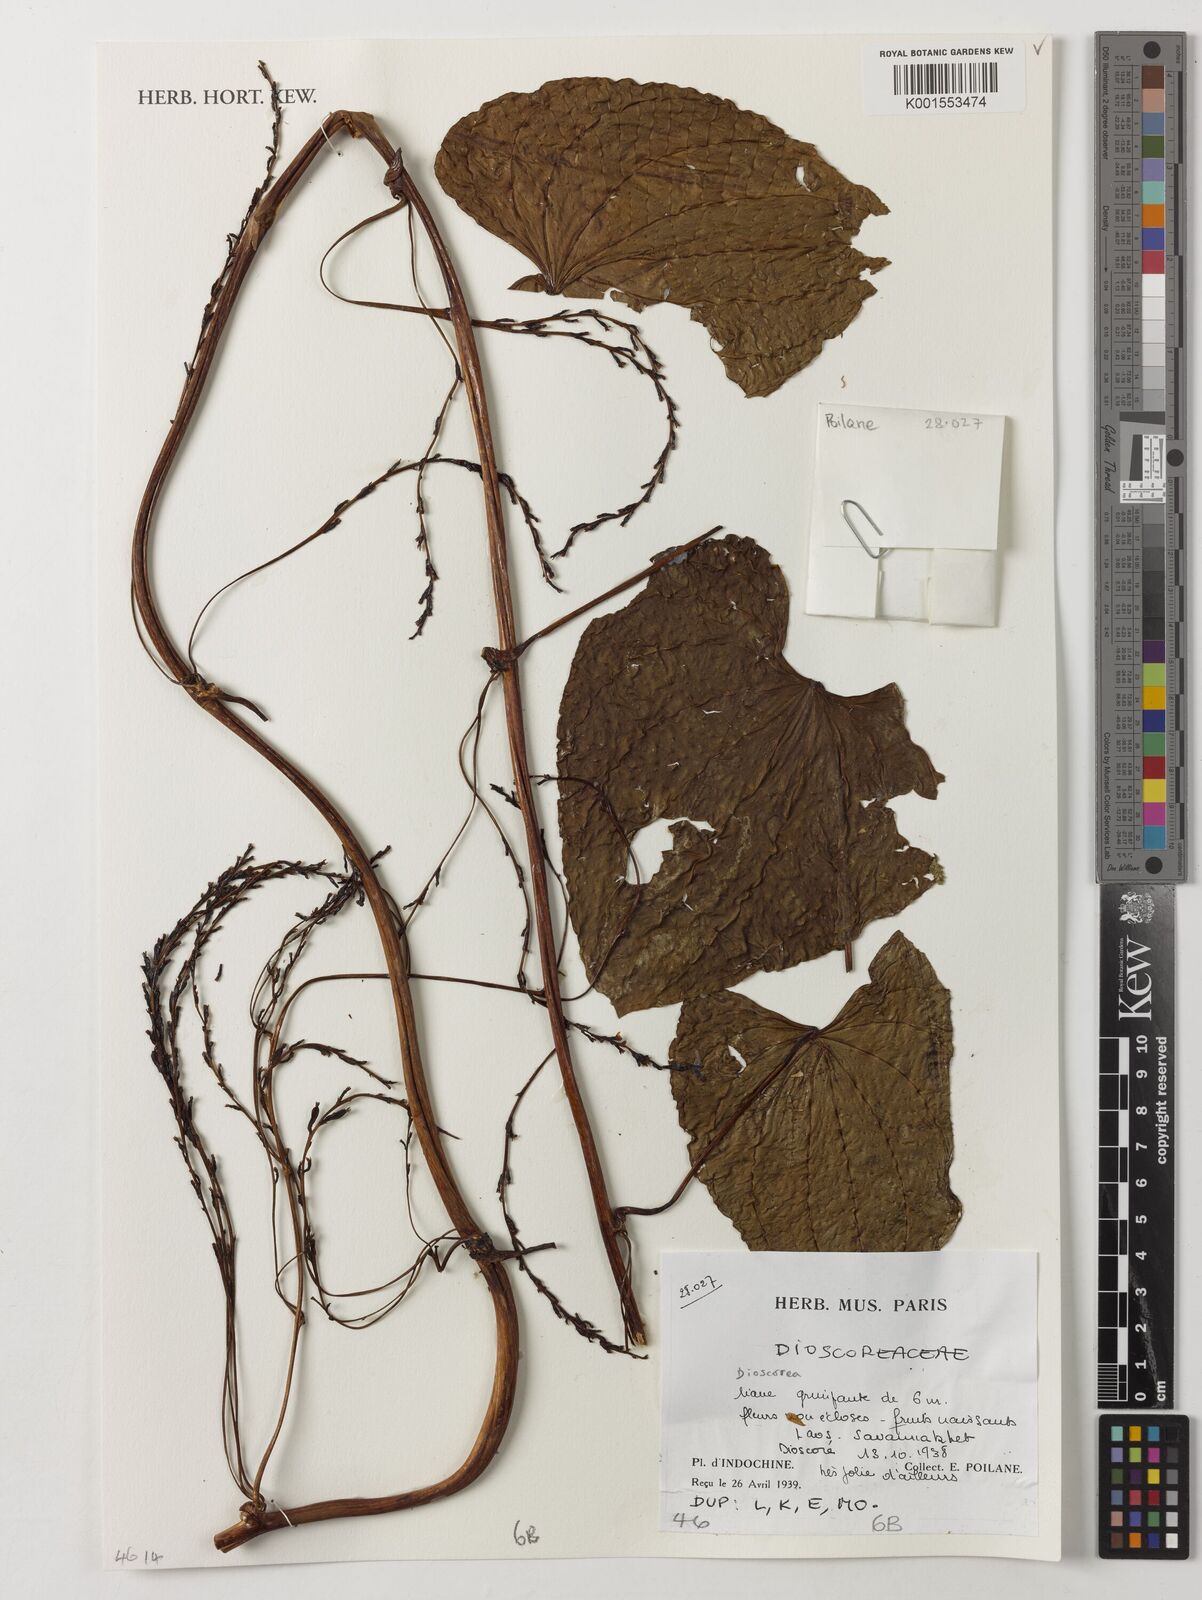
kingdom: Plantae
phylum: Tracheophyta
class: Liliopsida
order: Dioscoreales
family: Dioscoreaceae
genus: Dioscorea
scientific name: Dioscorea
